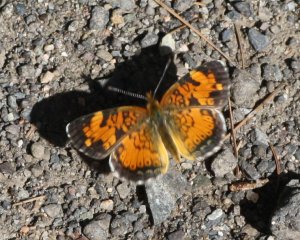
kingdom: Animalia
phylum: Arthropoda
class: Insecta
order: Lepidoptera
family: Nymphalidae
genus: Phyciodes
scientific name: Phyciodes tharos
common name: Northern Crescent
